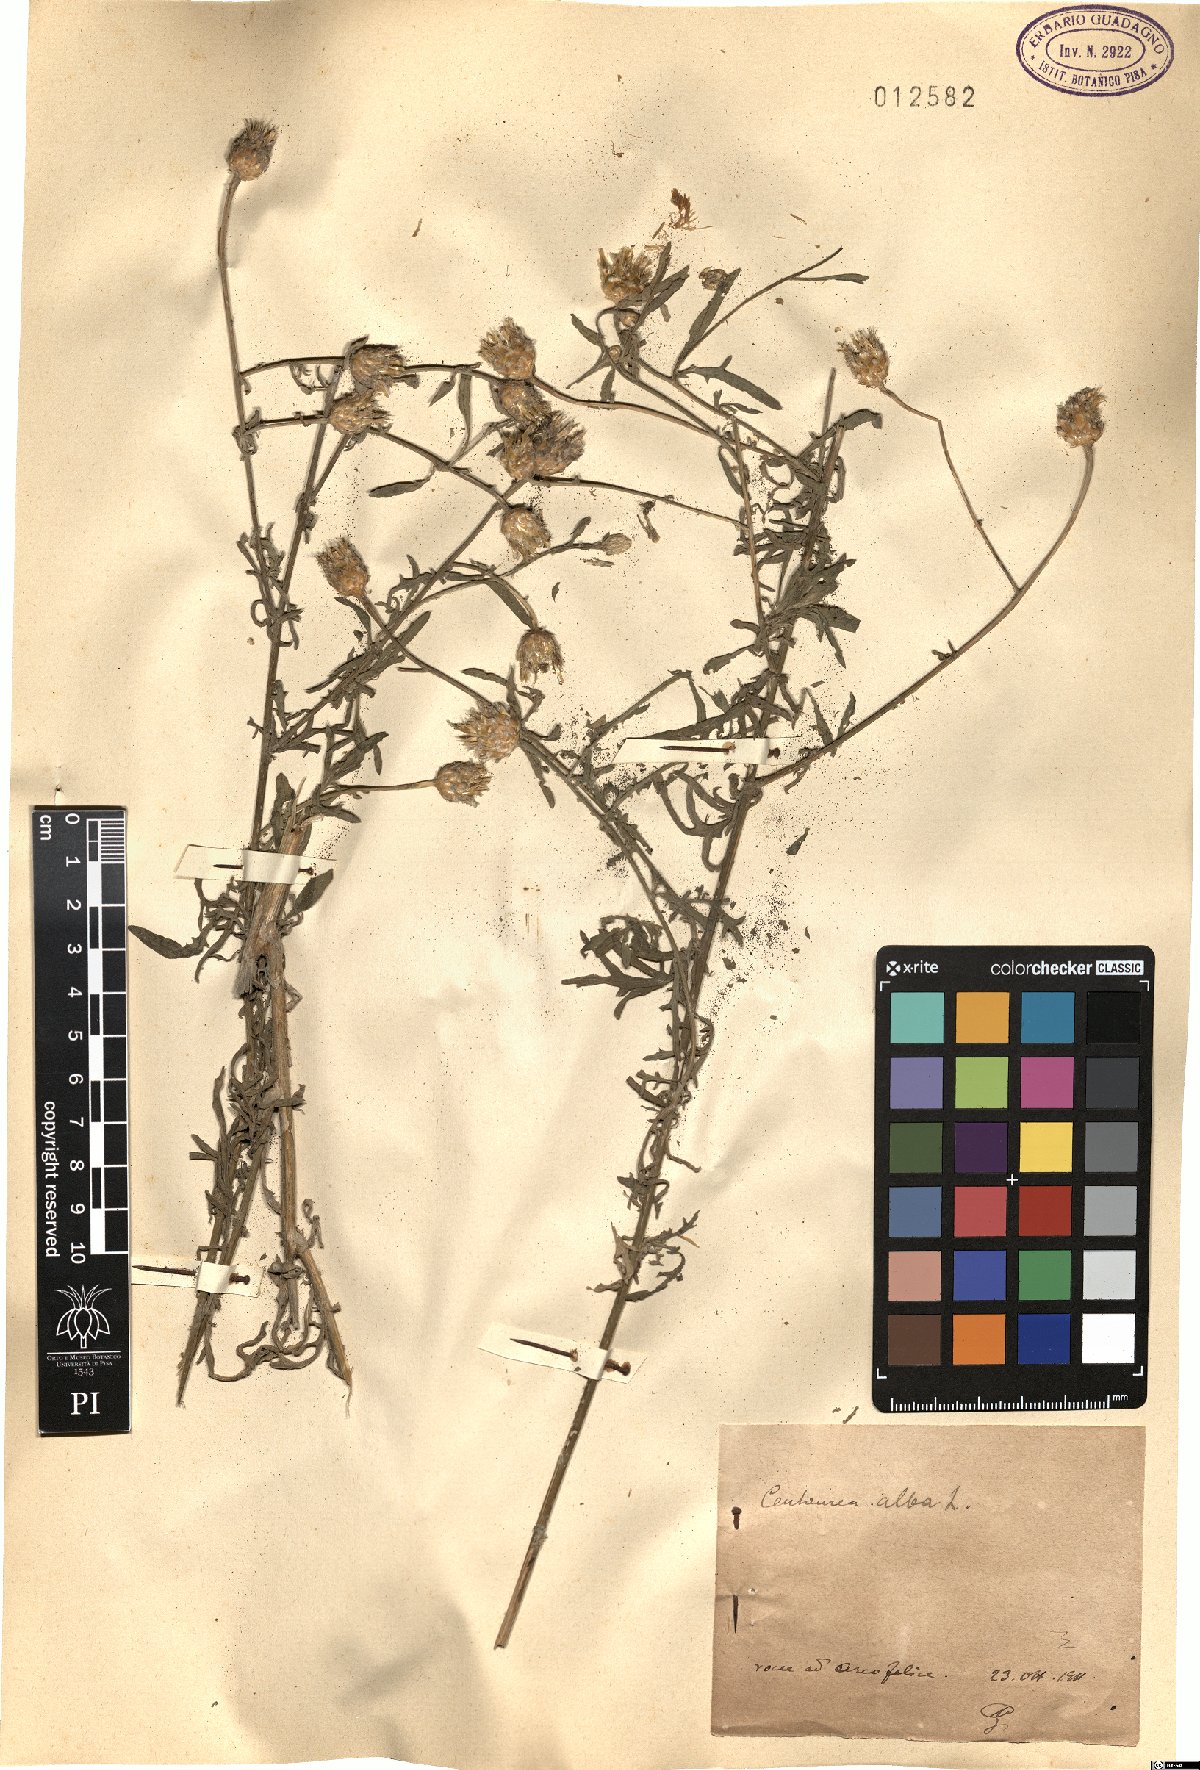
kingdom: Plantae
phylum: Tracheophyta
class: Magnoliopsida
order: Asterales
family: Asteraceae
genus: Centaurea
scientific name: Centaurea alba
